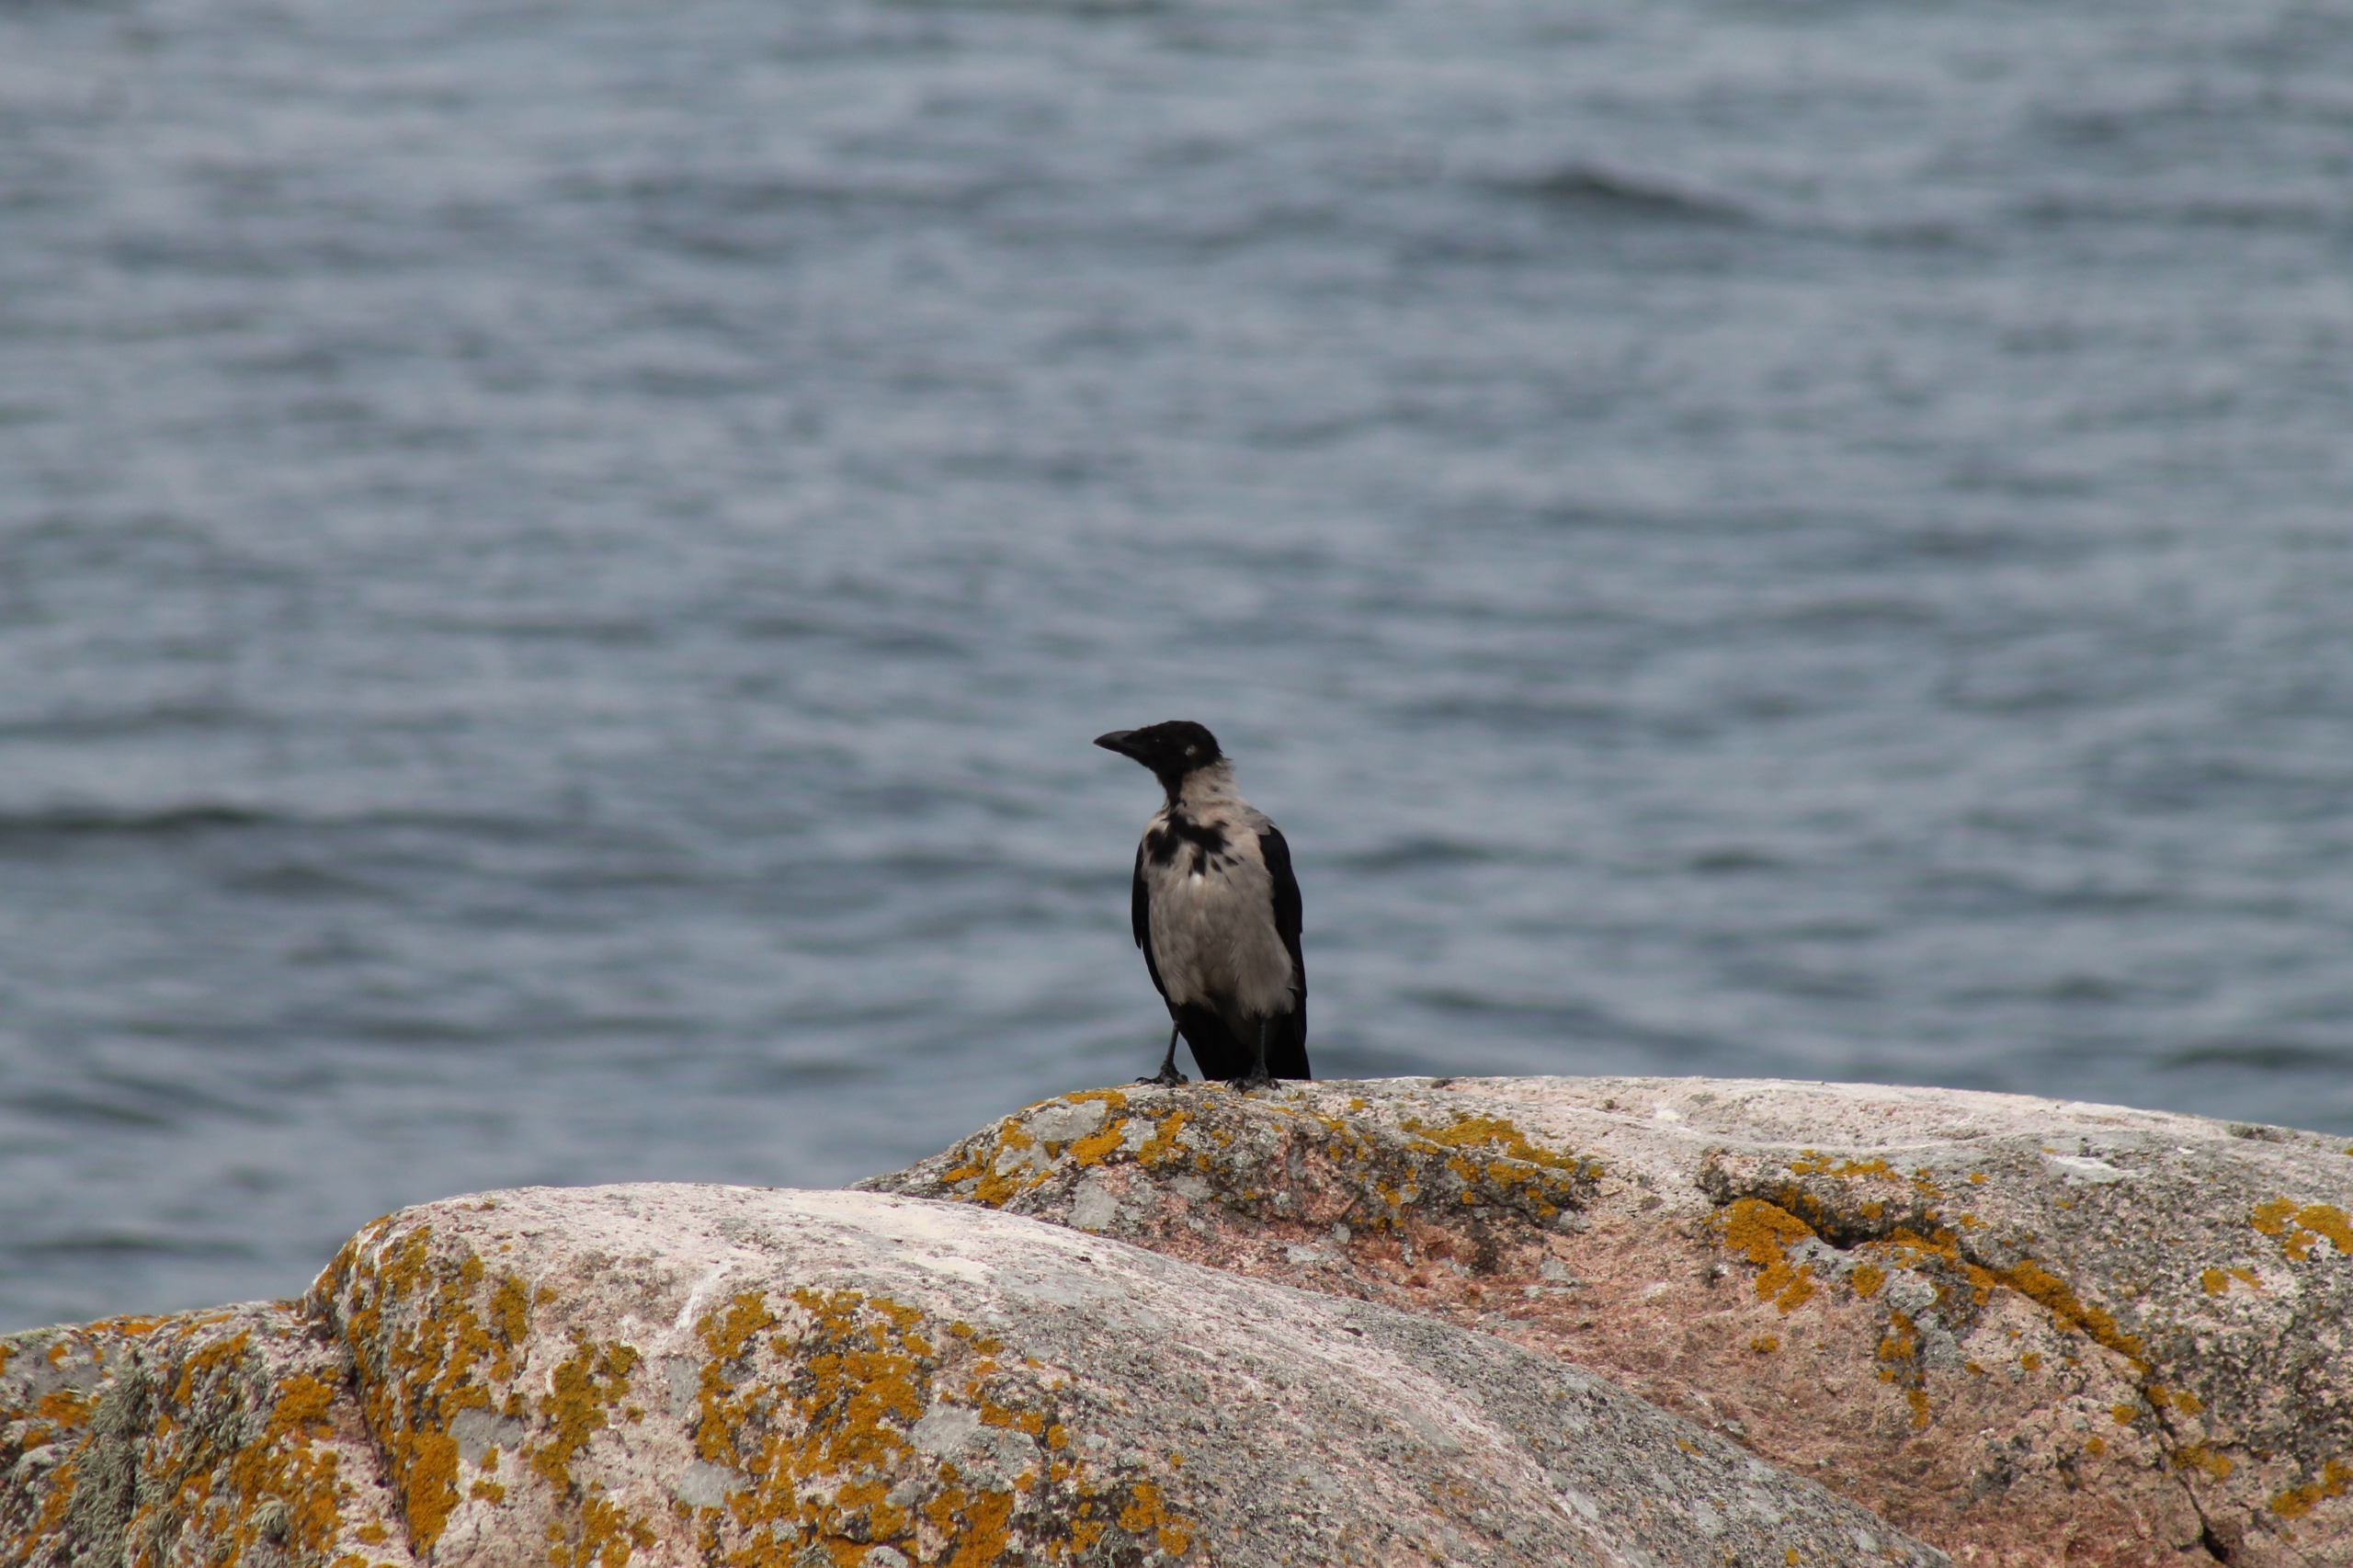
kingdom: Animalia
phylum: Chordata
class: Aves
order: Passeriformes
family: Corvidae
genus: Corvus
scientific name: Corvus cornix
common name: Gråkrage
